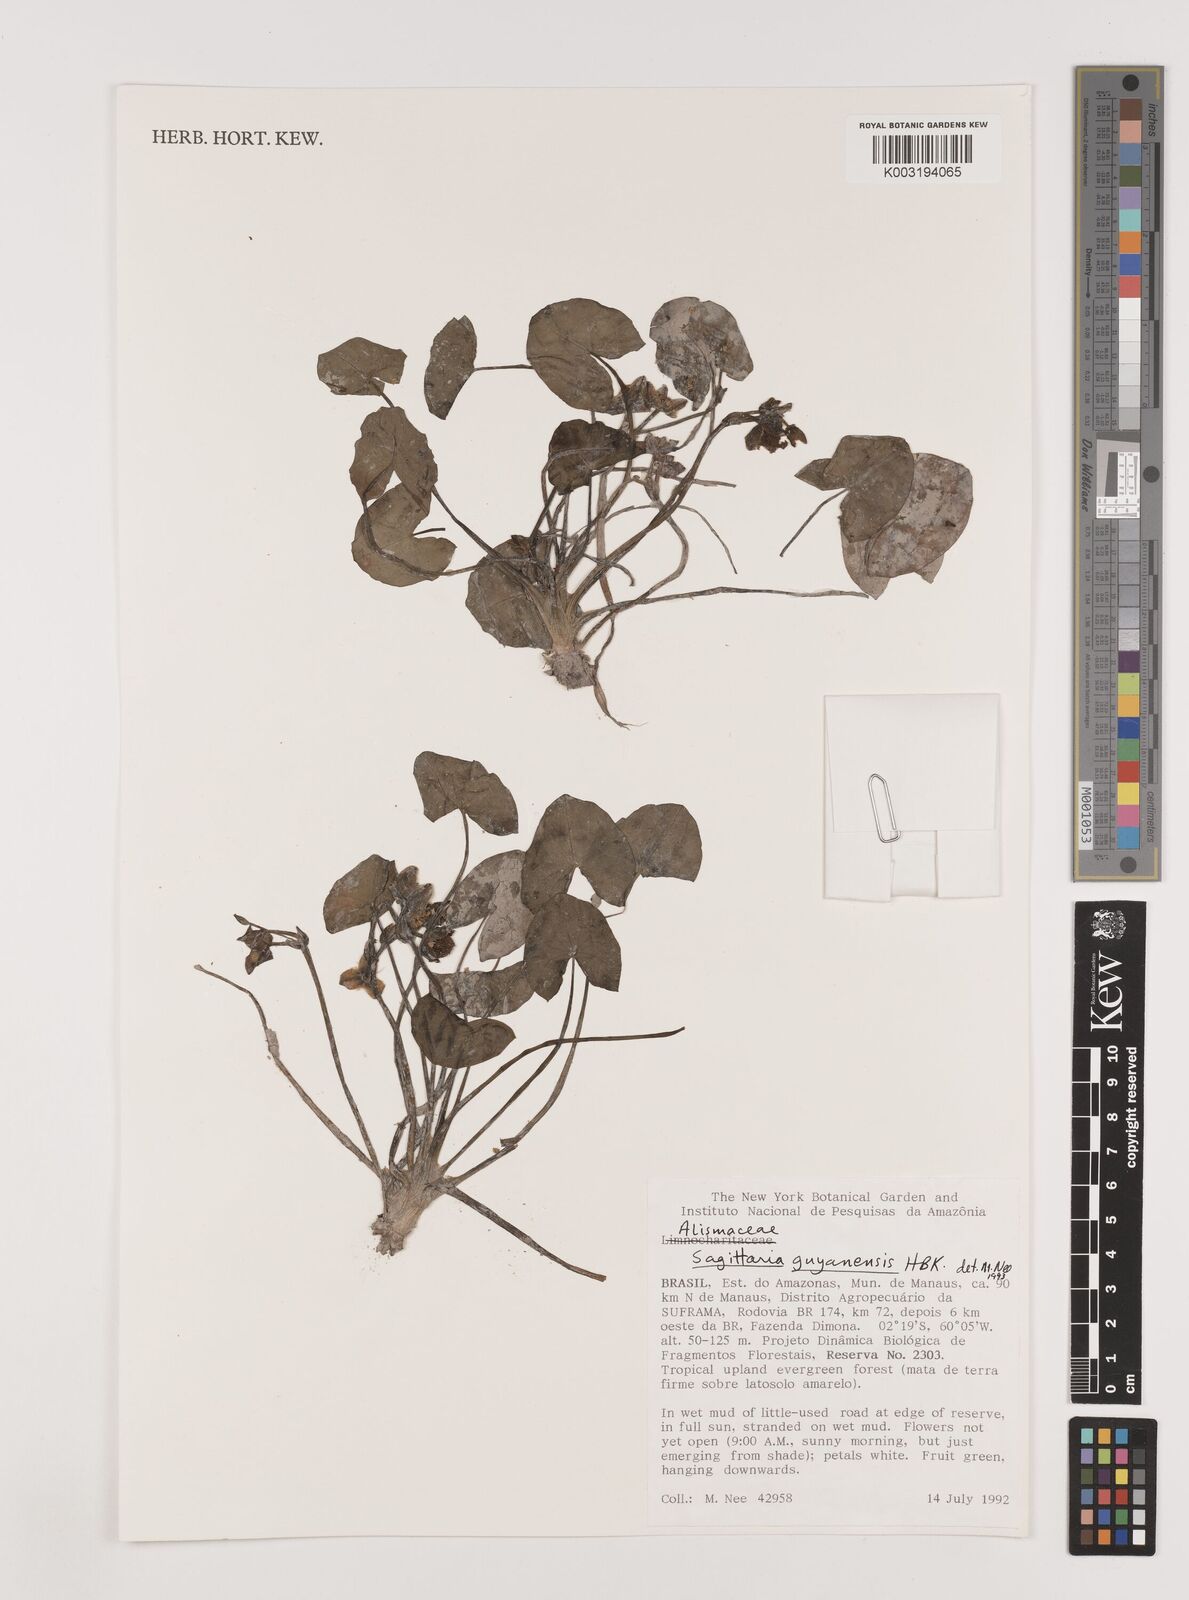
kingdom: Plantae
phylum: Tracheophyta
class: Liliopsida
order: Alismatales
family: Alismataceae
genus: Sagittaria
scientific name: Sagittaria guayanensis
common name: Guyanese arrowhead
